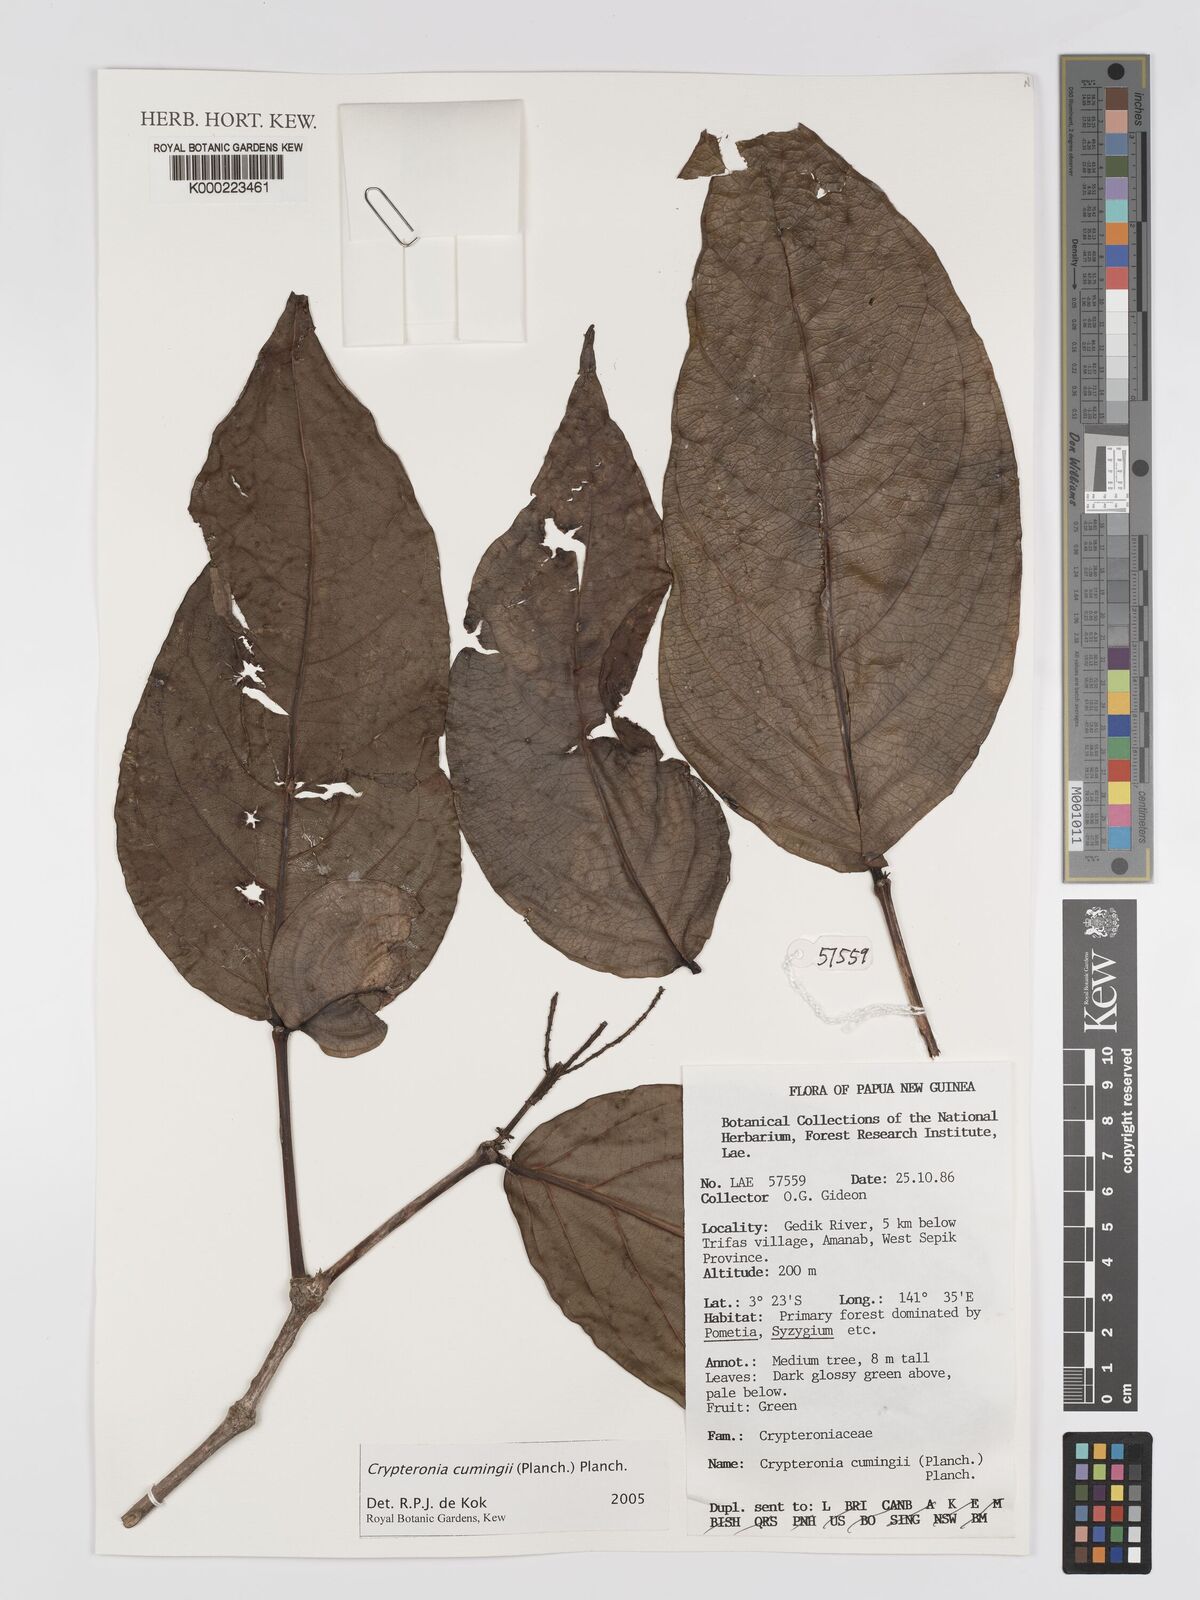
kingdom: Plantae
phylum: Tracheophyta
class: Magnoliopsida
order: Myrtales
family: Crypteroniaceae
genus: Crypteronia
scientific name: Crypteronia cumingii
